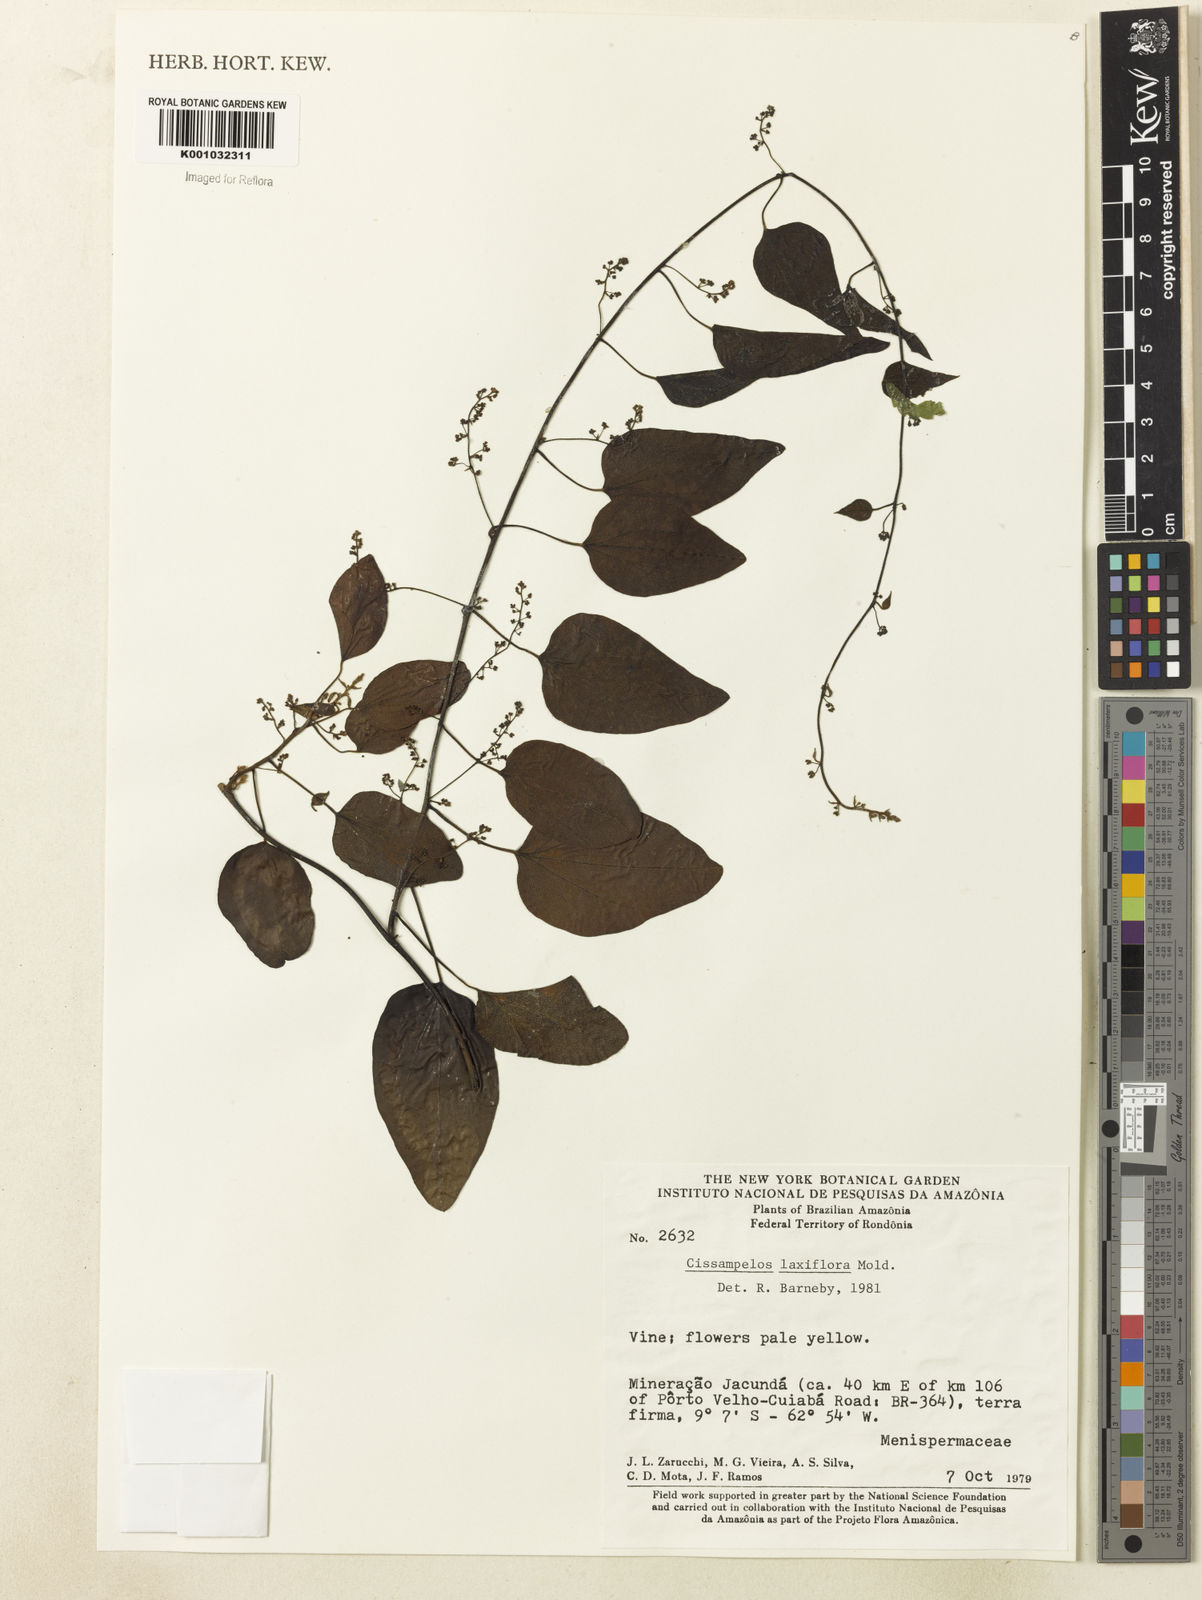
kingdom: Plantae
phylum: Tracheophyta
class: Magnoliopsida
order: Ranunculales
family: Menispermaceae
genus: Cissampelos
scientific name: Cissampelos laxiflora
